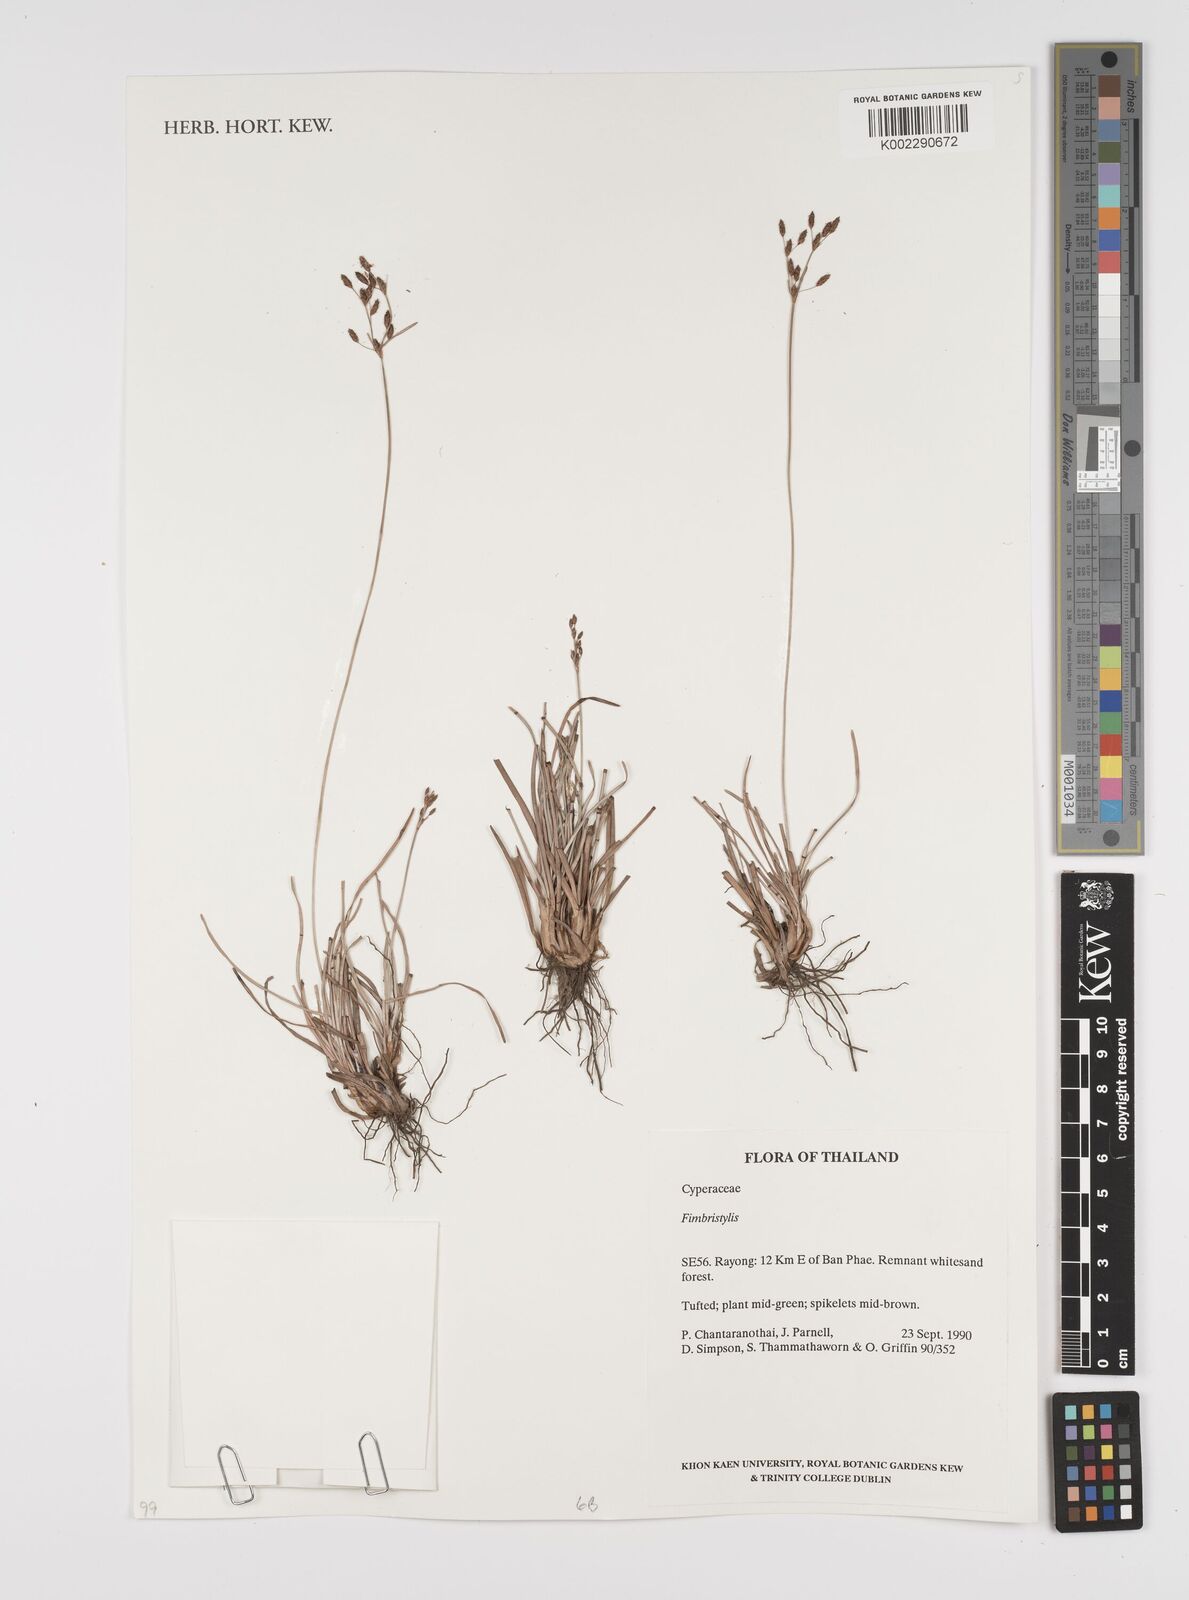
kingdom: Plantae
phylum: Tracheophyta
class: Liliopsida
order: Poales
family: Cyperaceae
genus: Fimbristylis
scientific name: Fimbristylis
